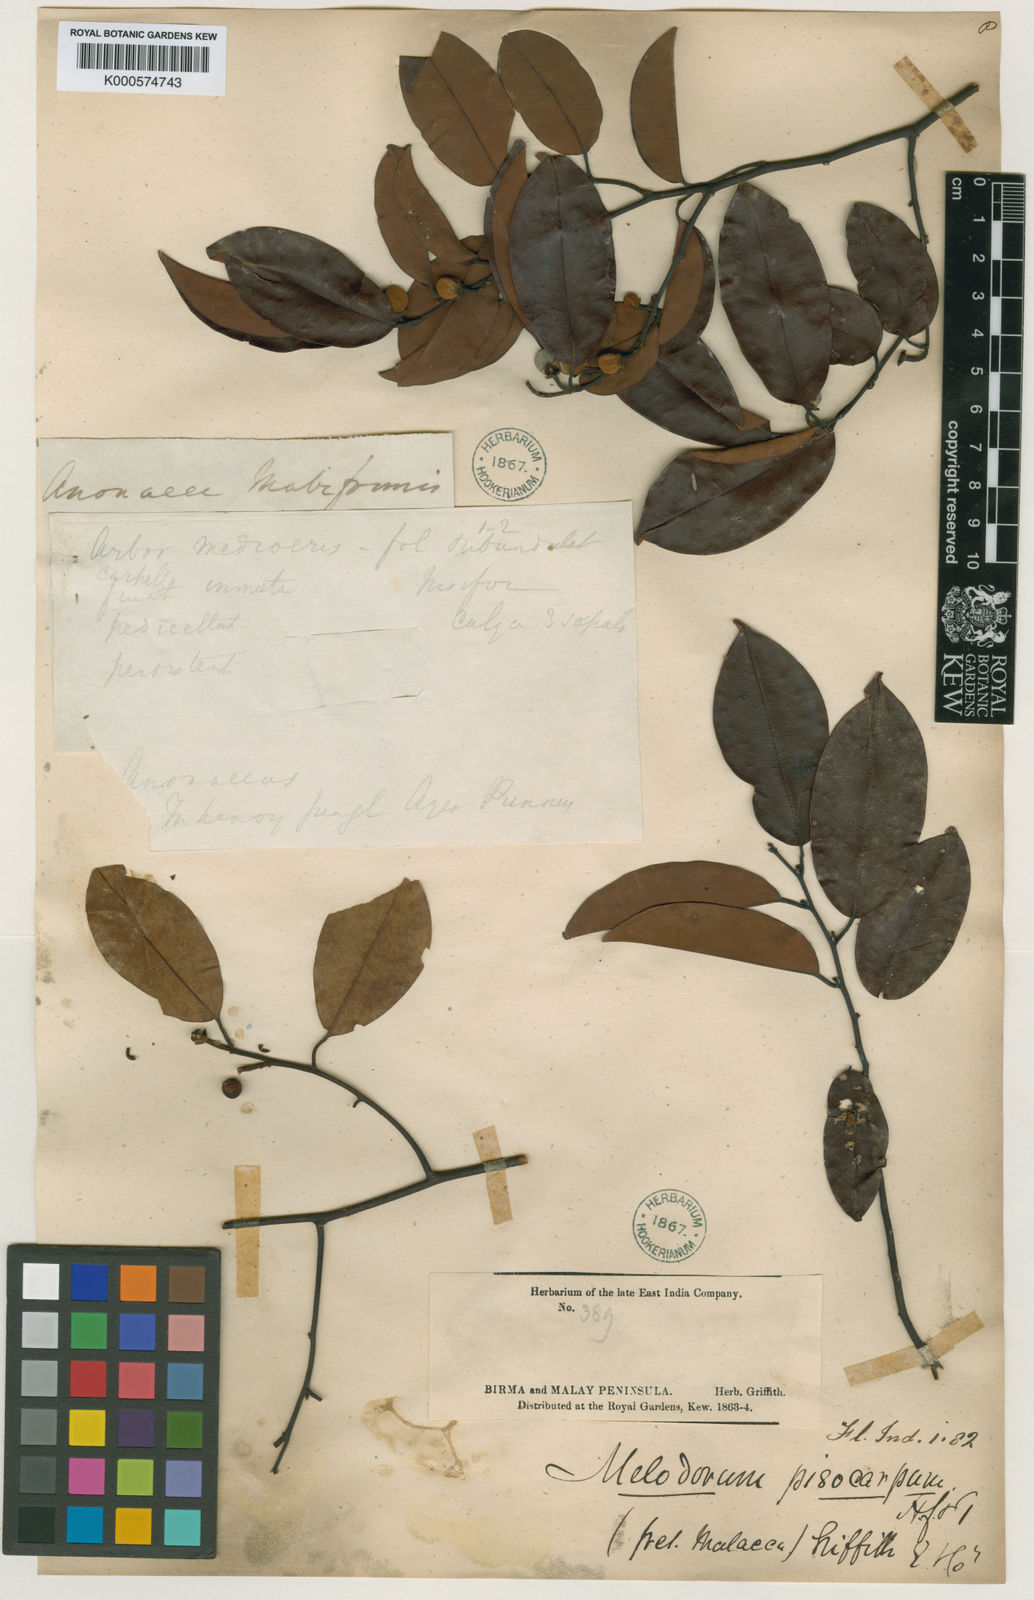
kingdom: Plantae
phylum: Tracheophyta
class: Magnoliopsida
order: Magnoliales
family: Annonaceae
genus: Mitrella
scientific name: Mitrella kentii
